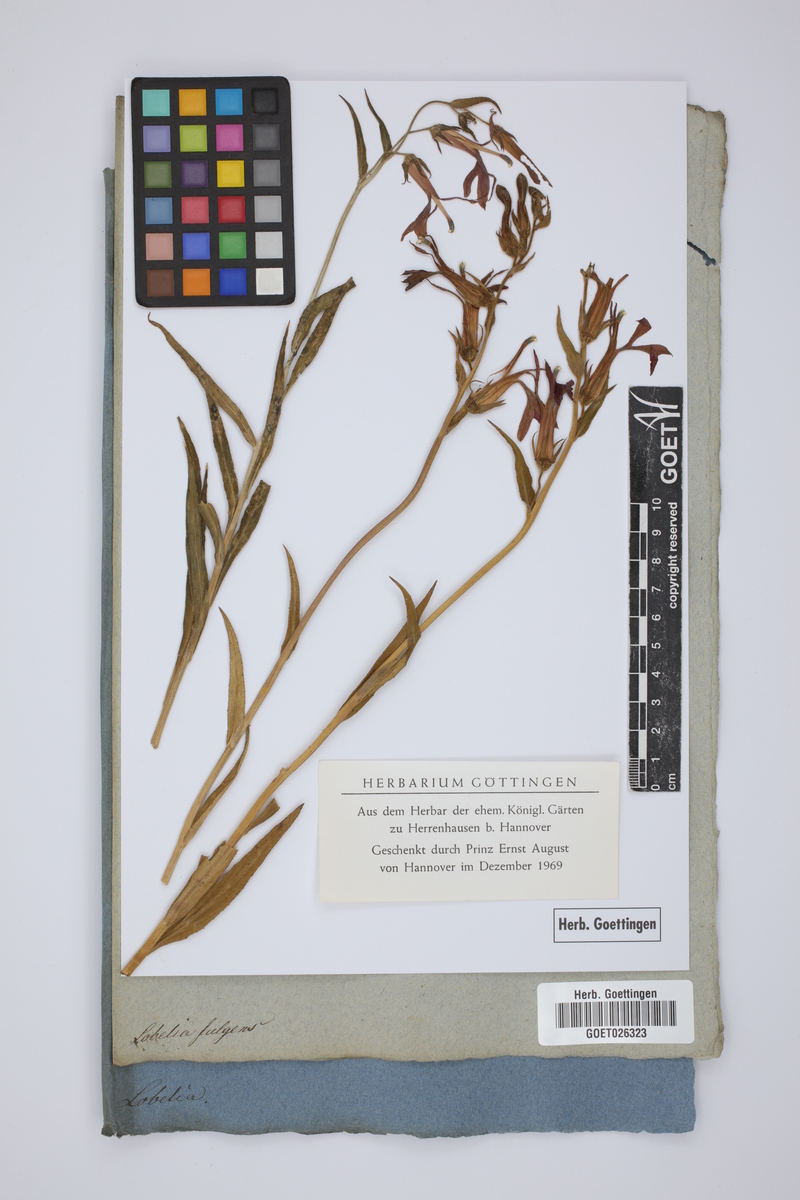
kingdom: Plantae
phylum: Tracheophyta
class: Magnoliopsida
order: Asterales
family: Campanulaceae
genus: Lobelia
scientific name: Lobelia cardinalis
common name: Cardinal flower
